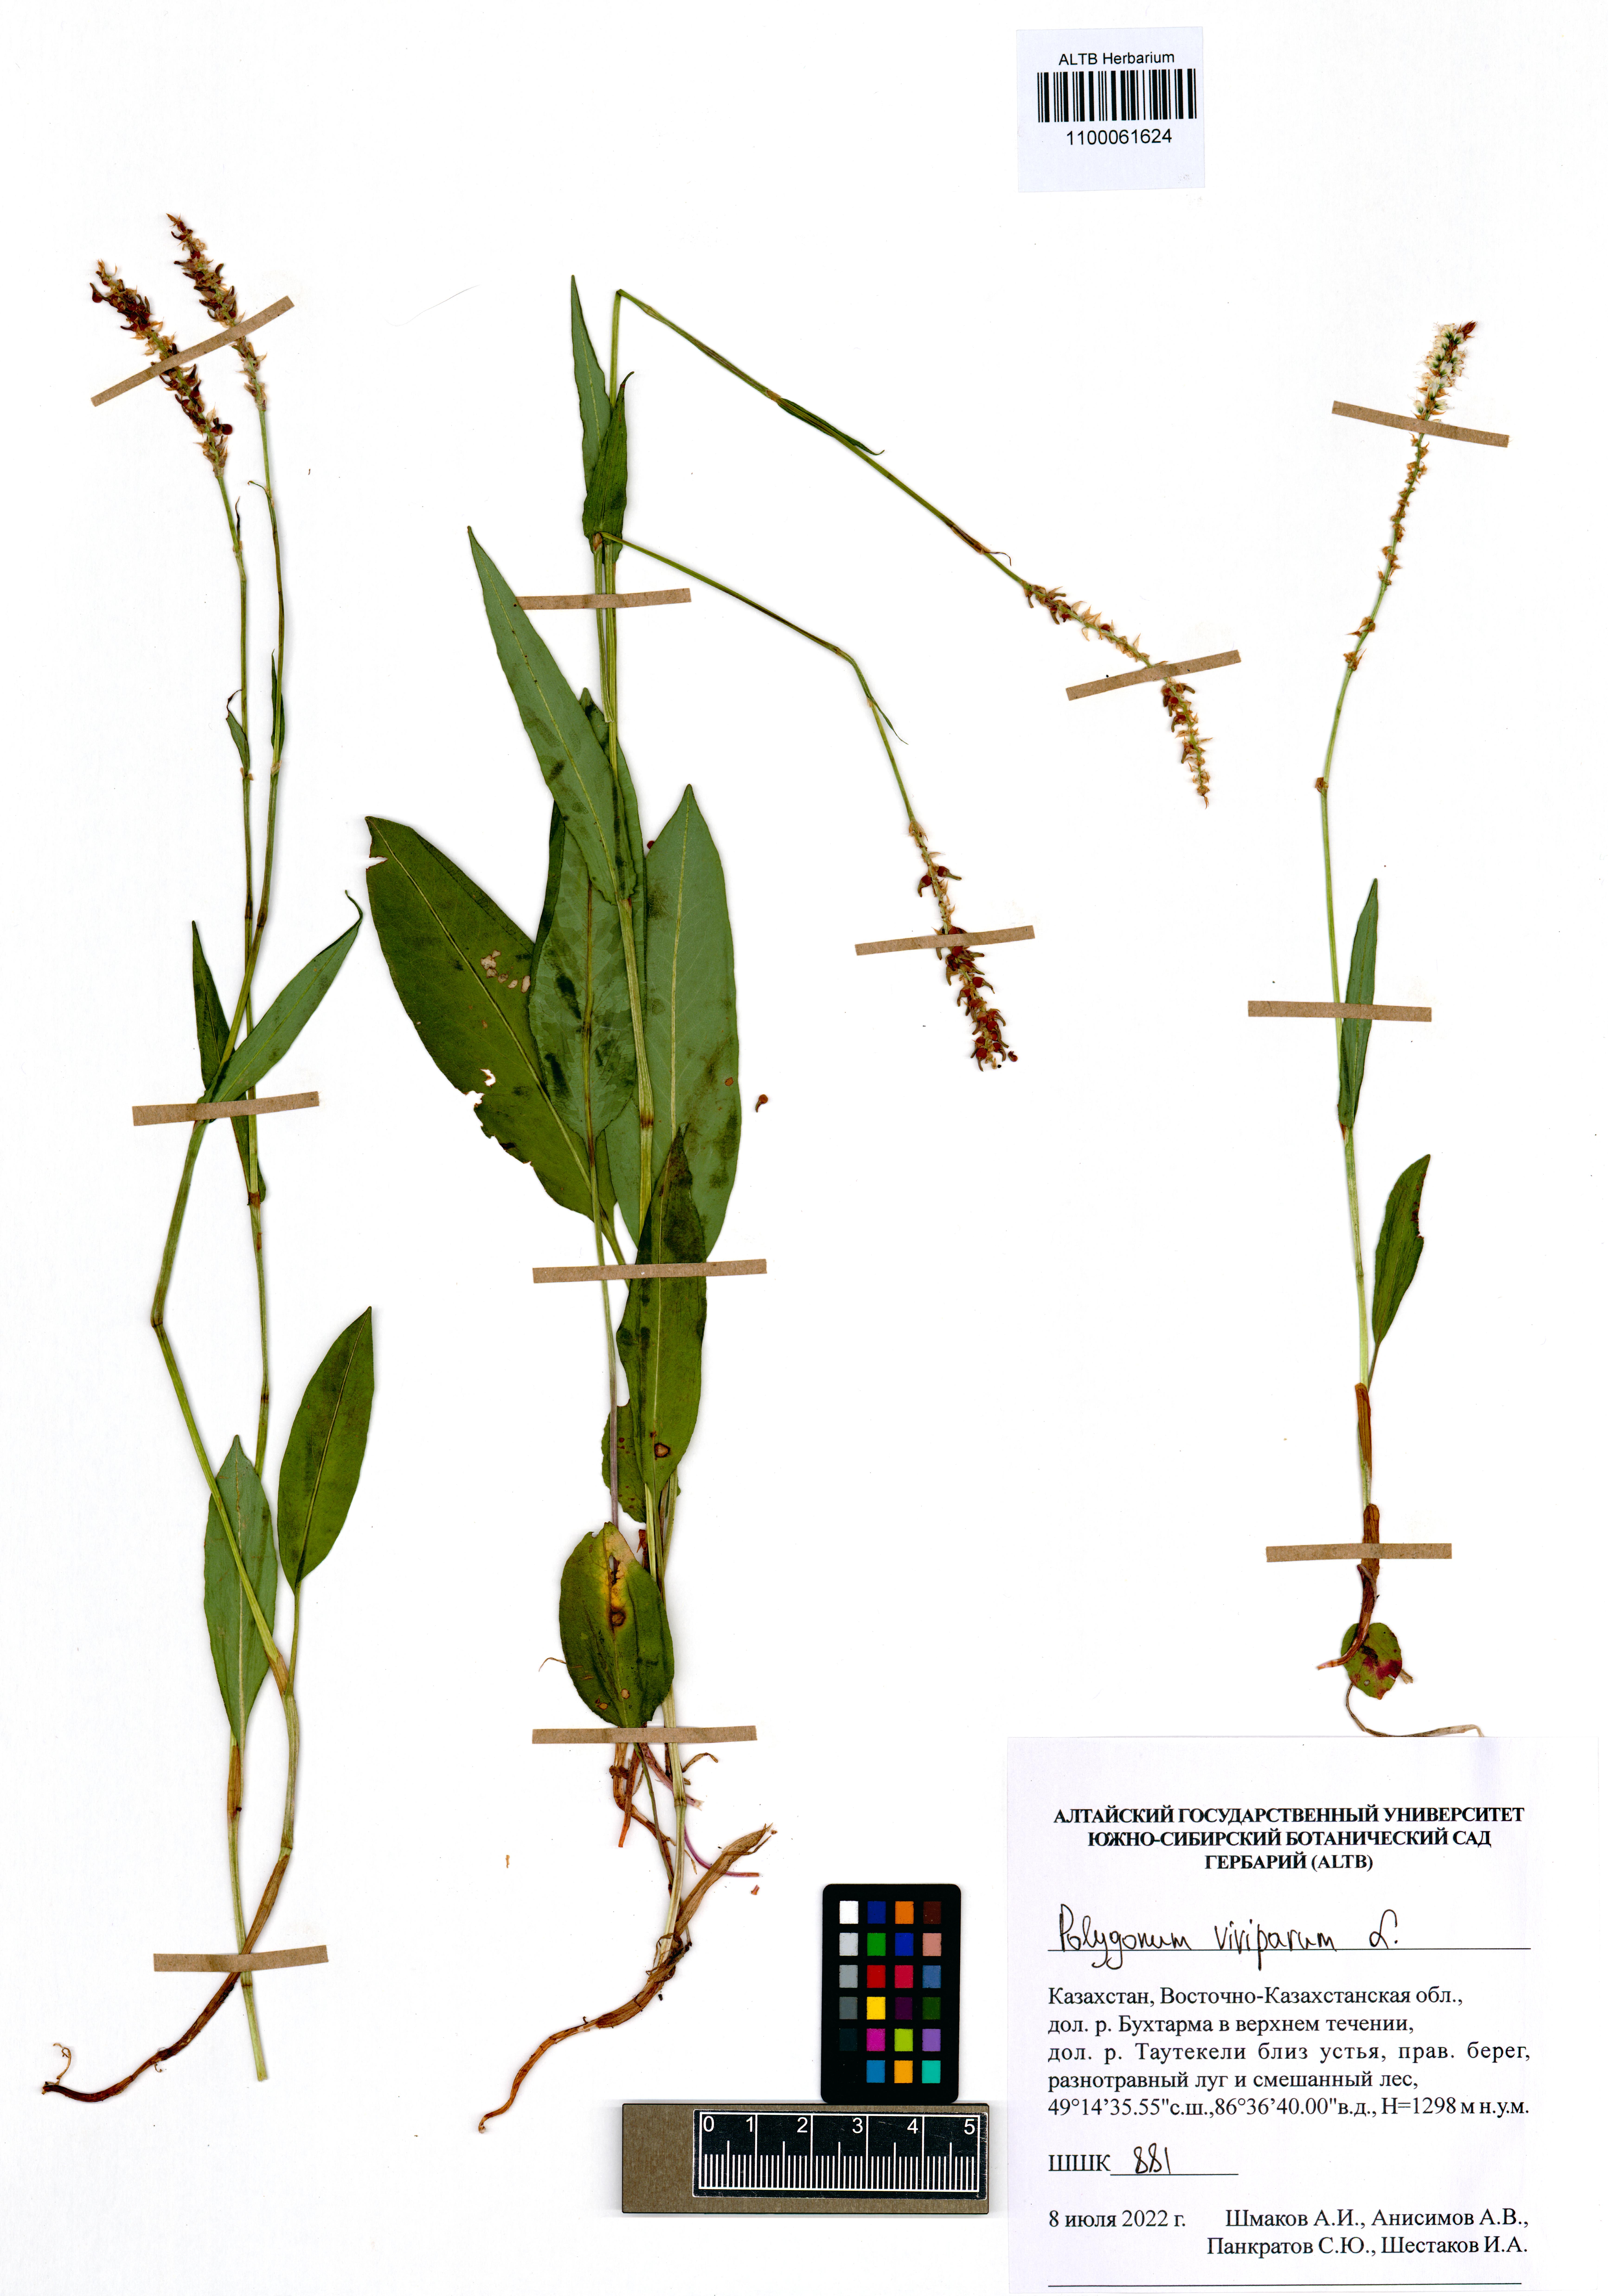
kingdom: Plantae
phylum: Tracheophyta
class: Magnoliopsida
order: Caryophyllales
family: Polygonaceae
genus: Bistorta
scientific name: Bistorta vivipara
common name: Alpine bistort
